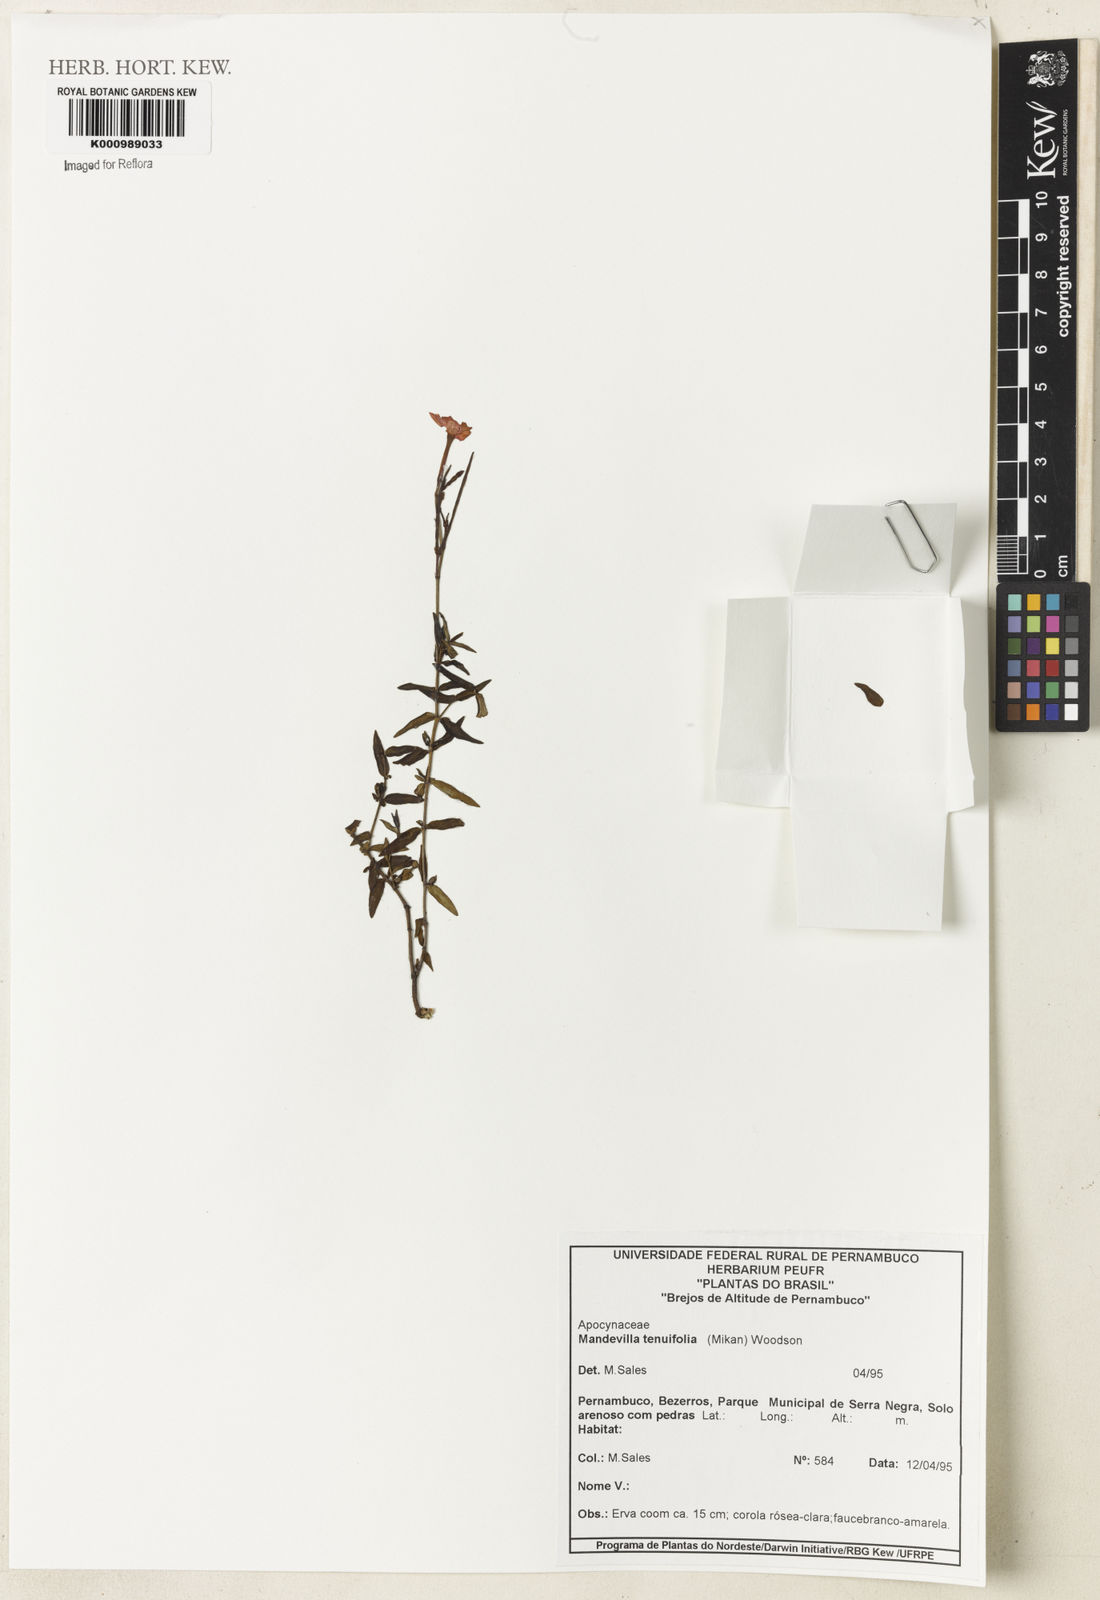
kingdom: Plantae
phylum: Tracheophyta
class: Magnoliopsida
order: Gentianales
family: Apocynaceae
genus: Mandevilla
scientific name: Mandevilla tenuifolia
